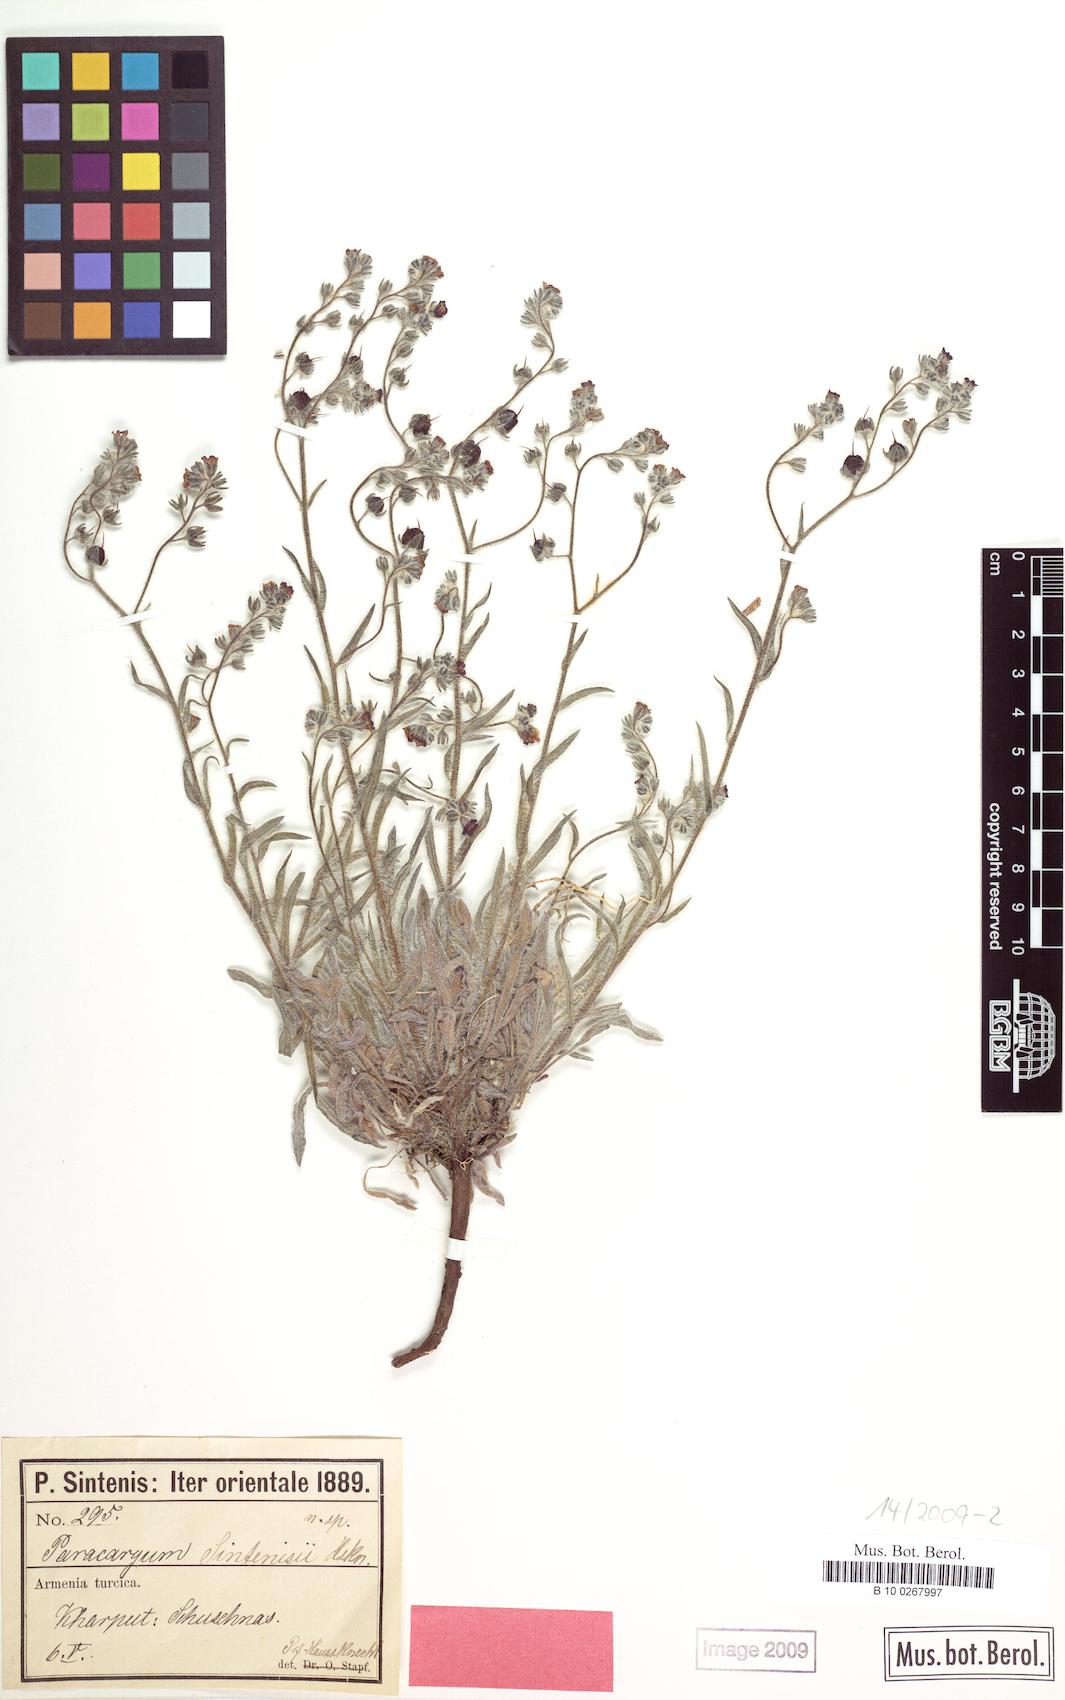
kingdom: Plantae
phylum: Tracheophyta
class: Magnoliopsida
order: Boraginales
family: Boraginaceae
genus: Paracaryum
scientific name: Paracaryum sintenisii
